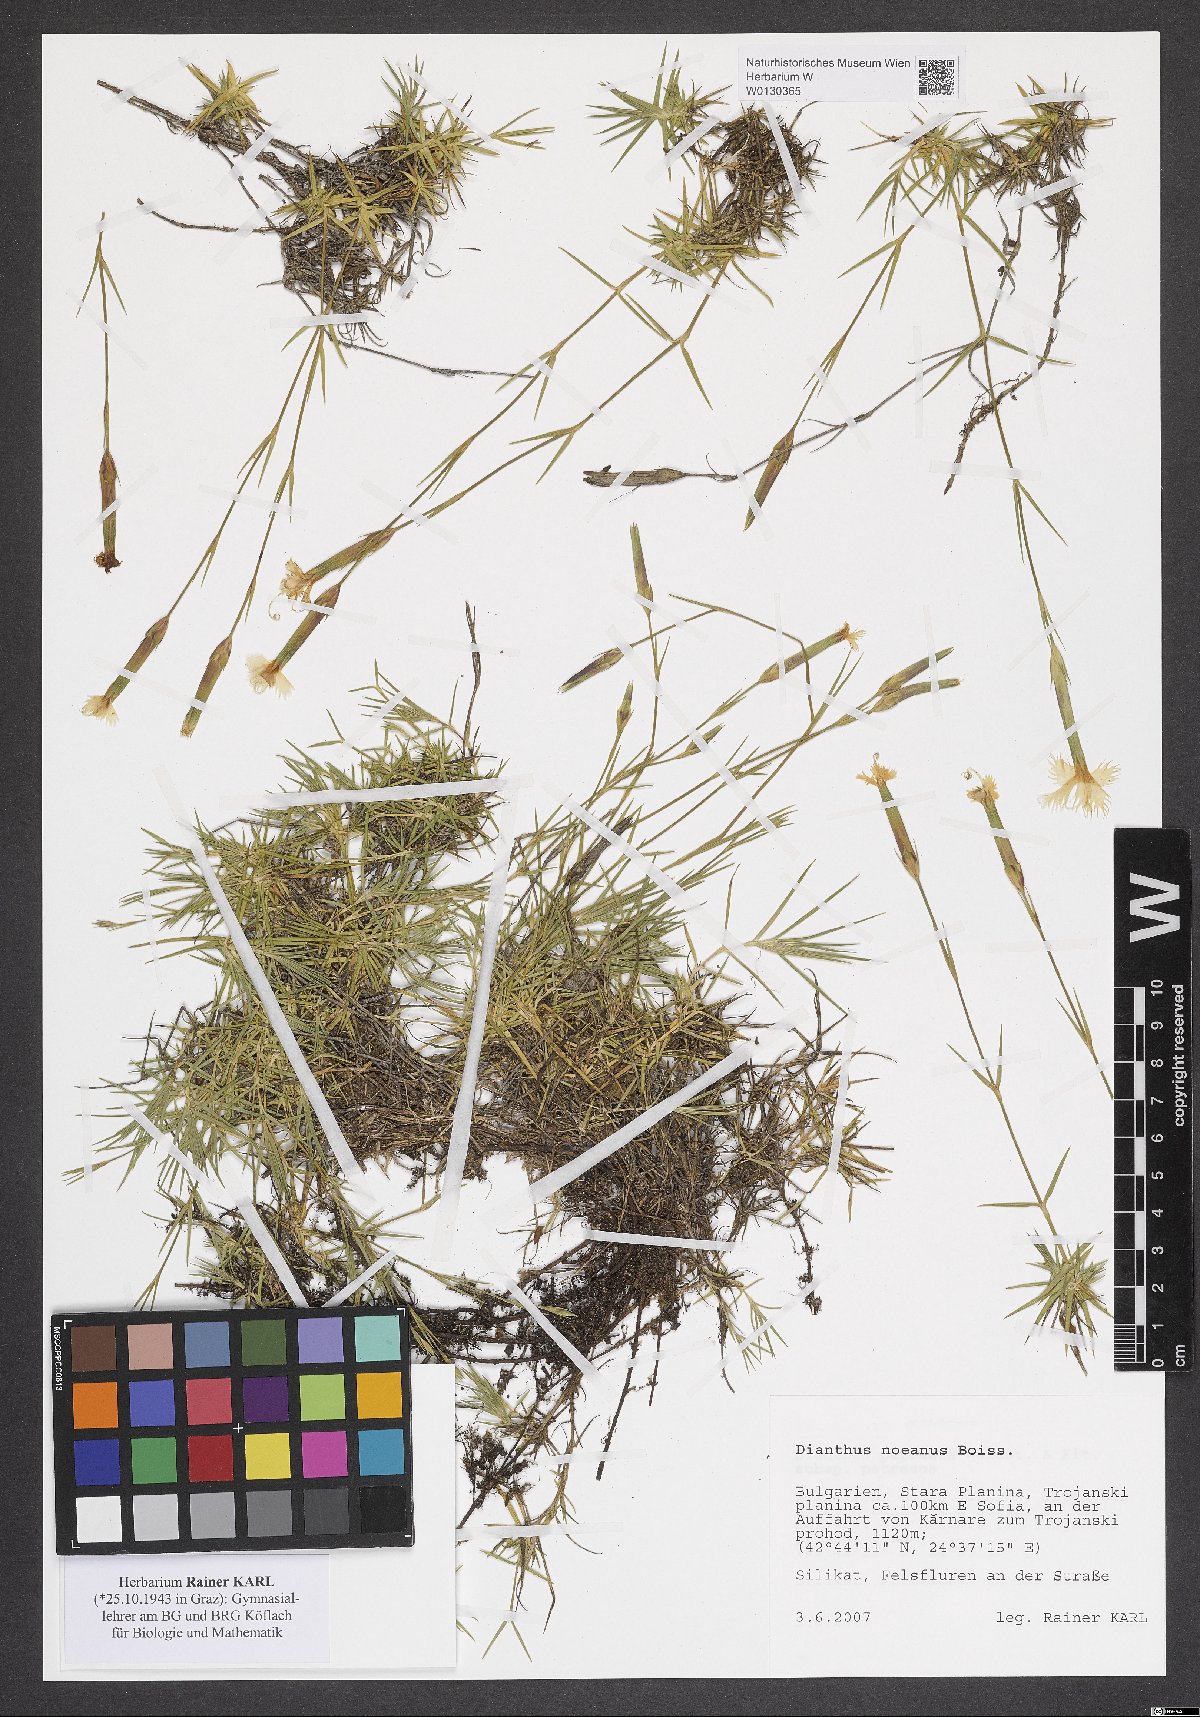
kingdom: Plantae
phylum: Tracheophyta
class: Magnoliopsida
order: Caryophyllales
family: Caryophyllaceae
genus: Dianthus
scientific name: Dianthus noeanus
